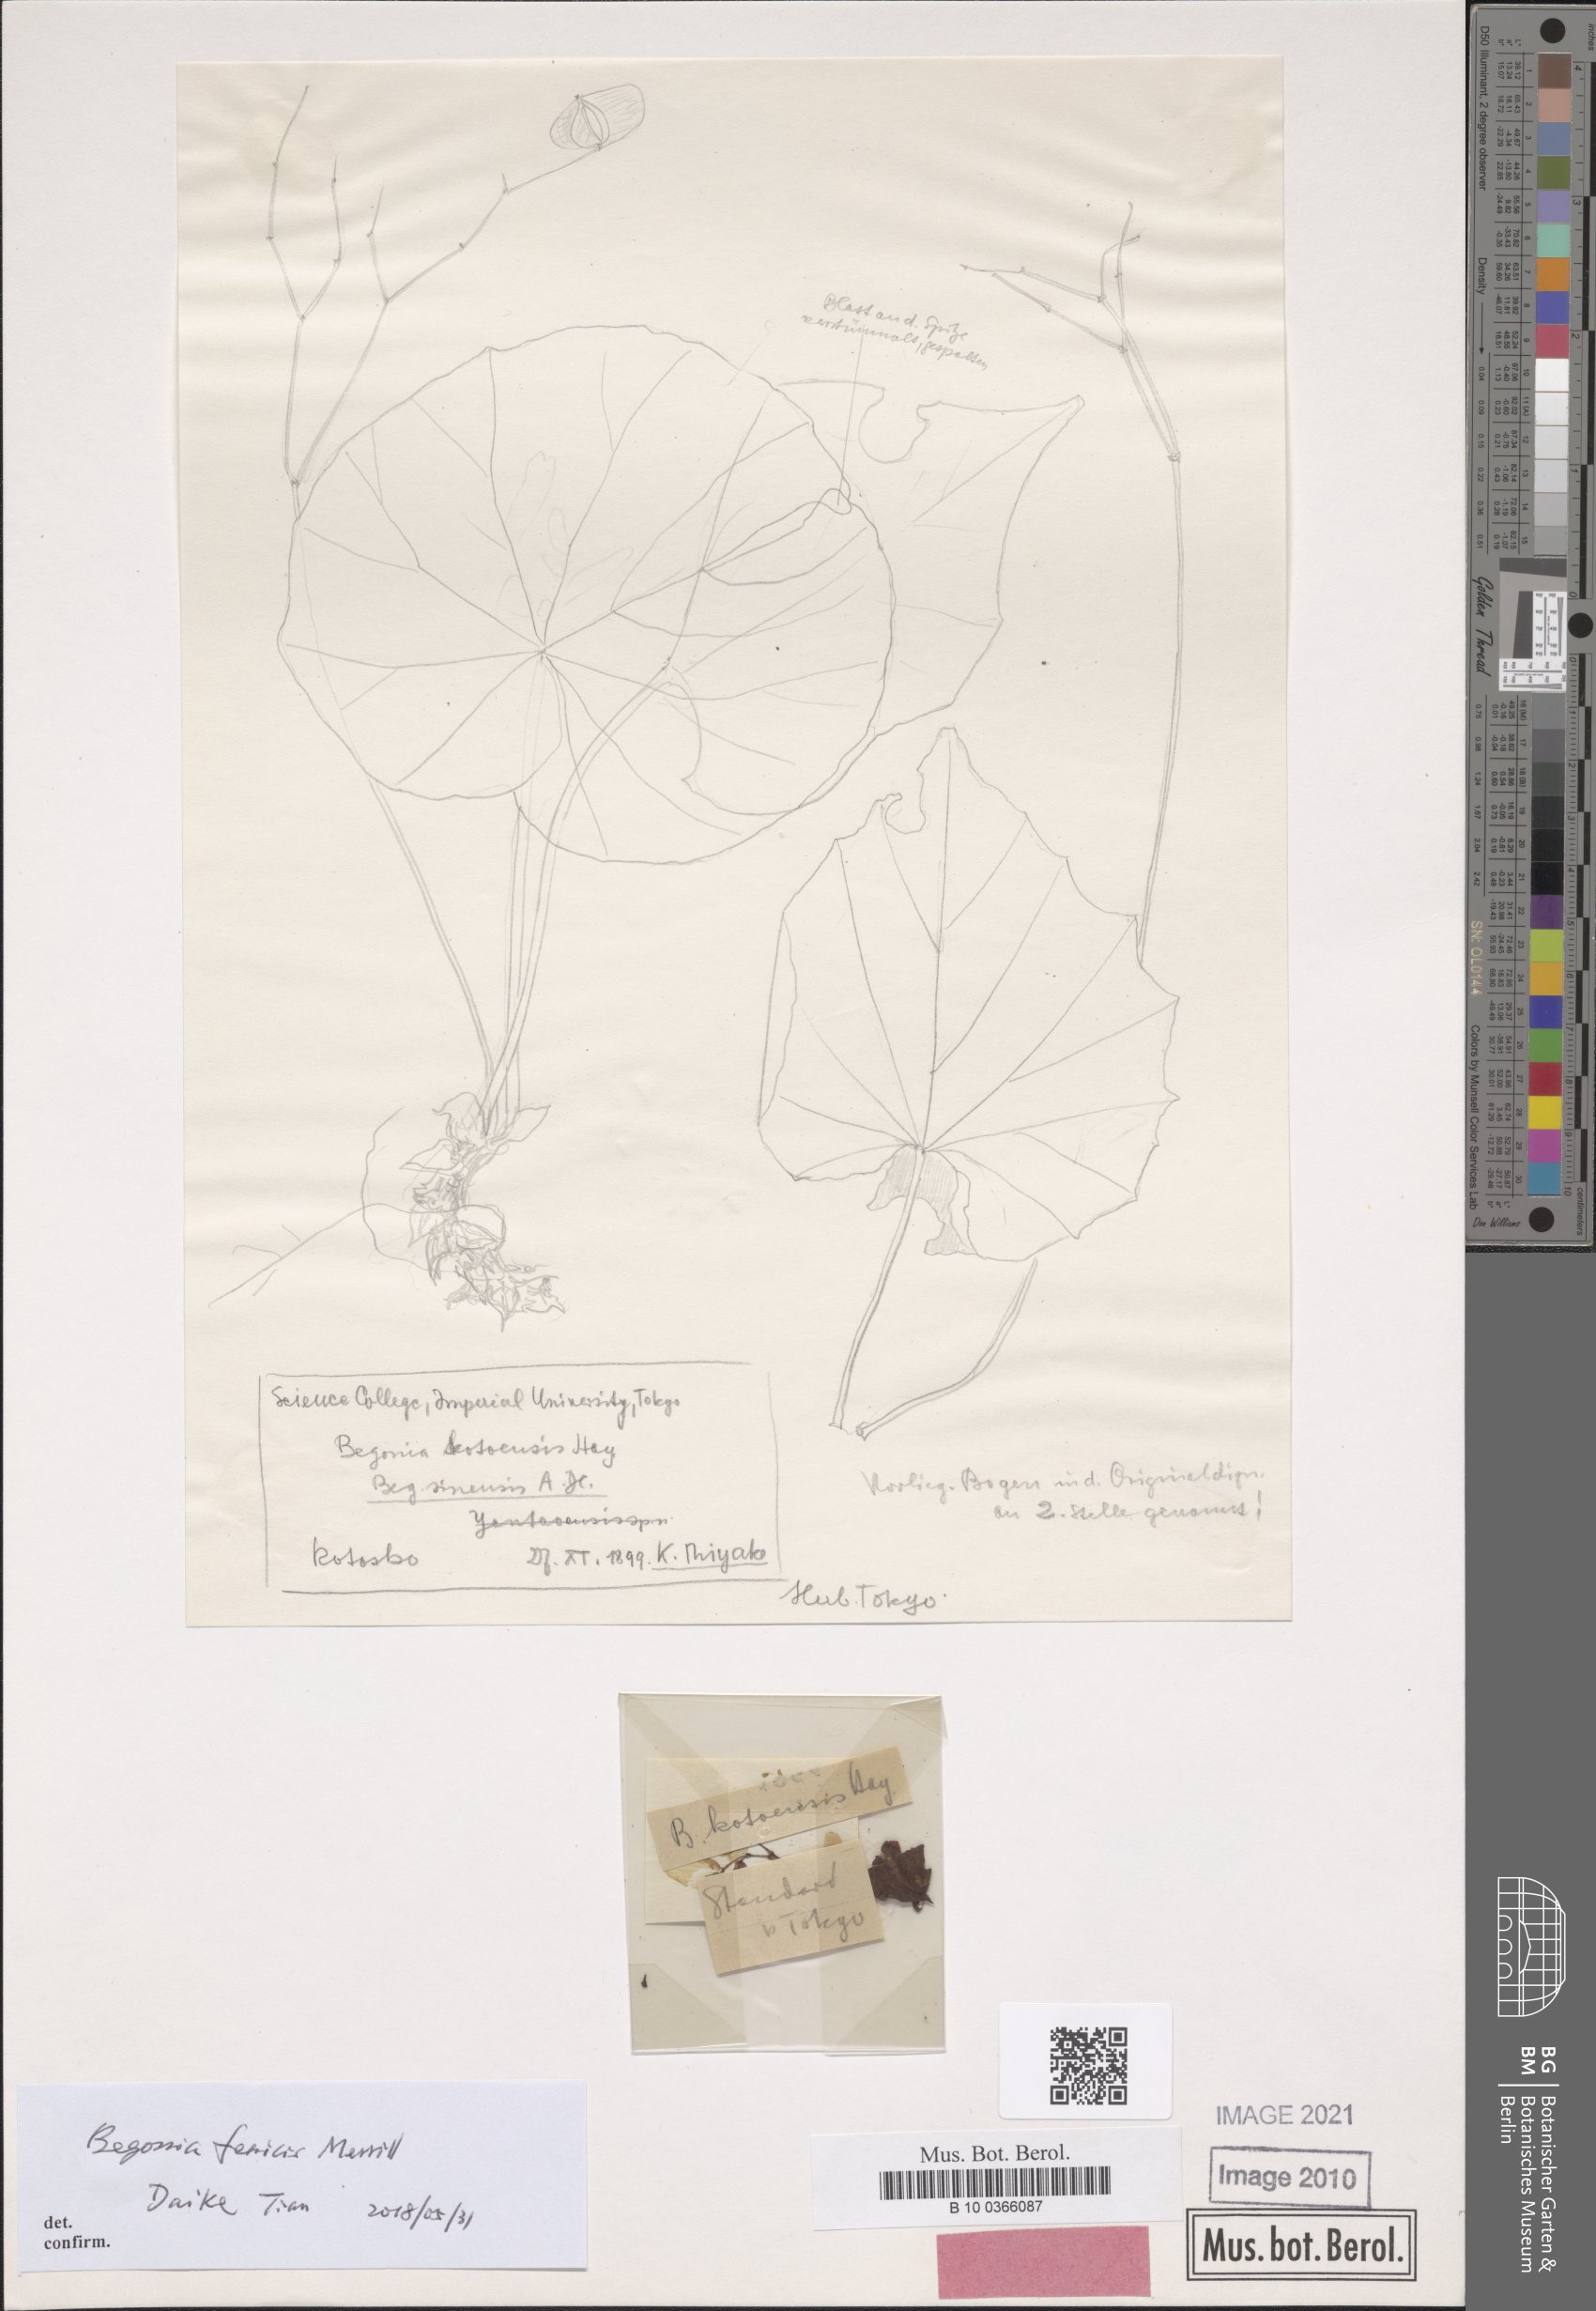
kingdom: Plantae
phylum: Tracheophyta
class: Magnoliopsida
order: Cucurbitales
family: Begoniaceae
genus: Begonia
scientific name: Begonia fenicis
